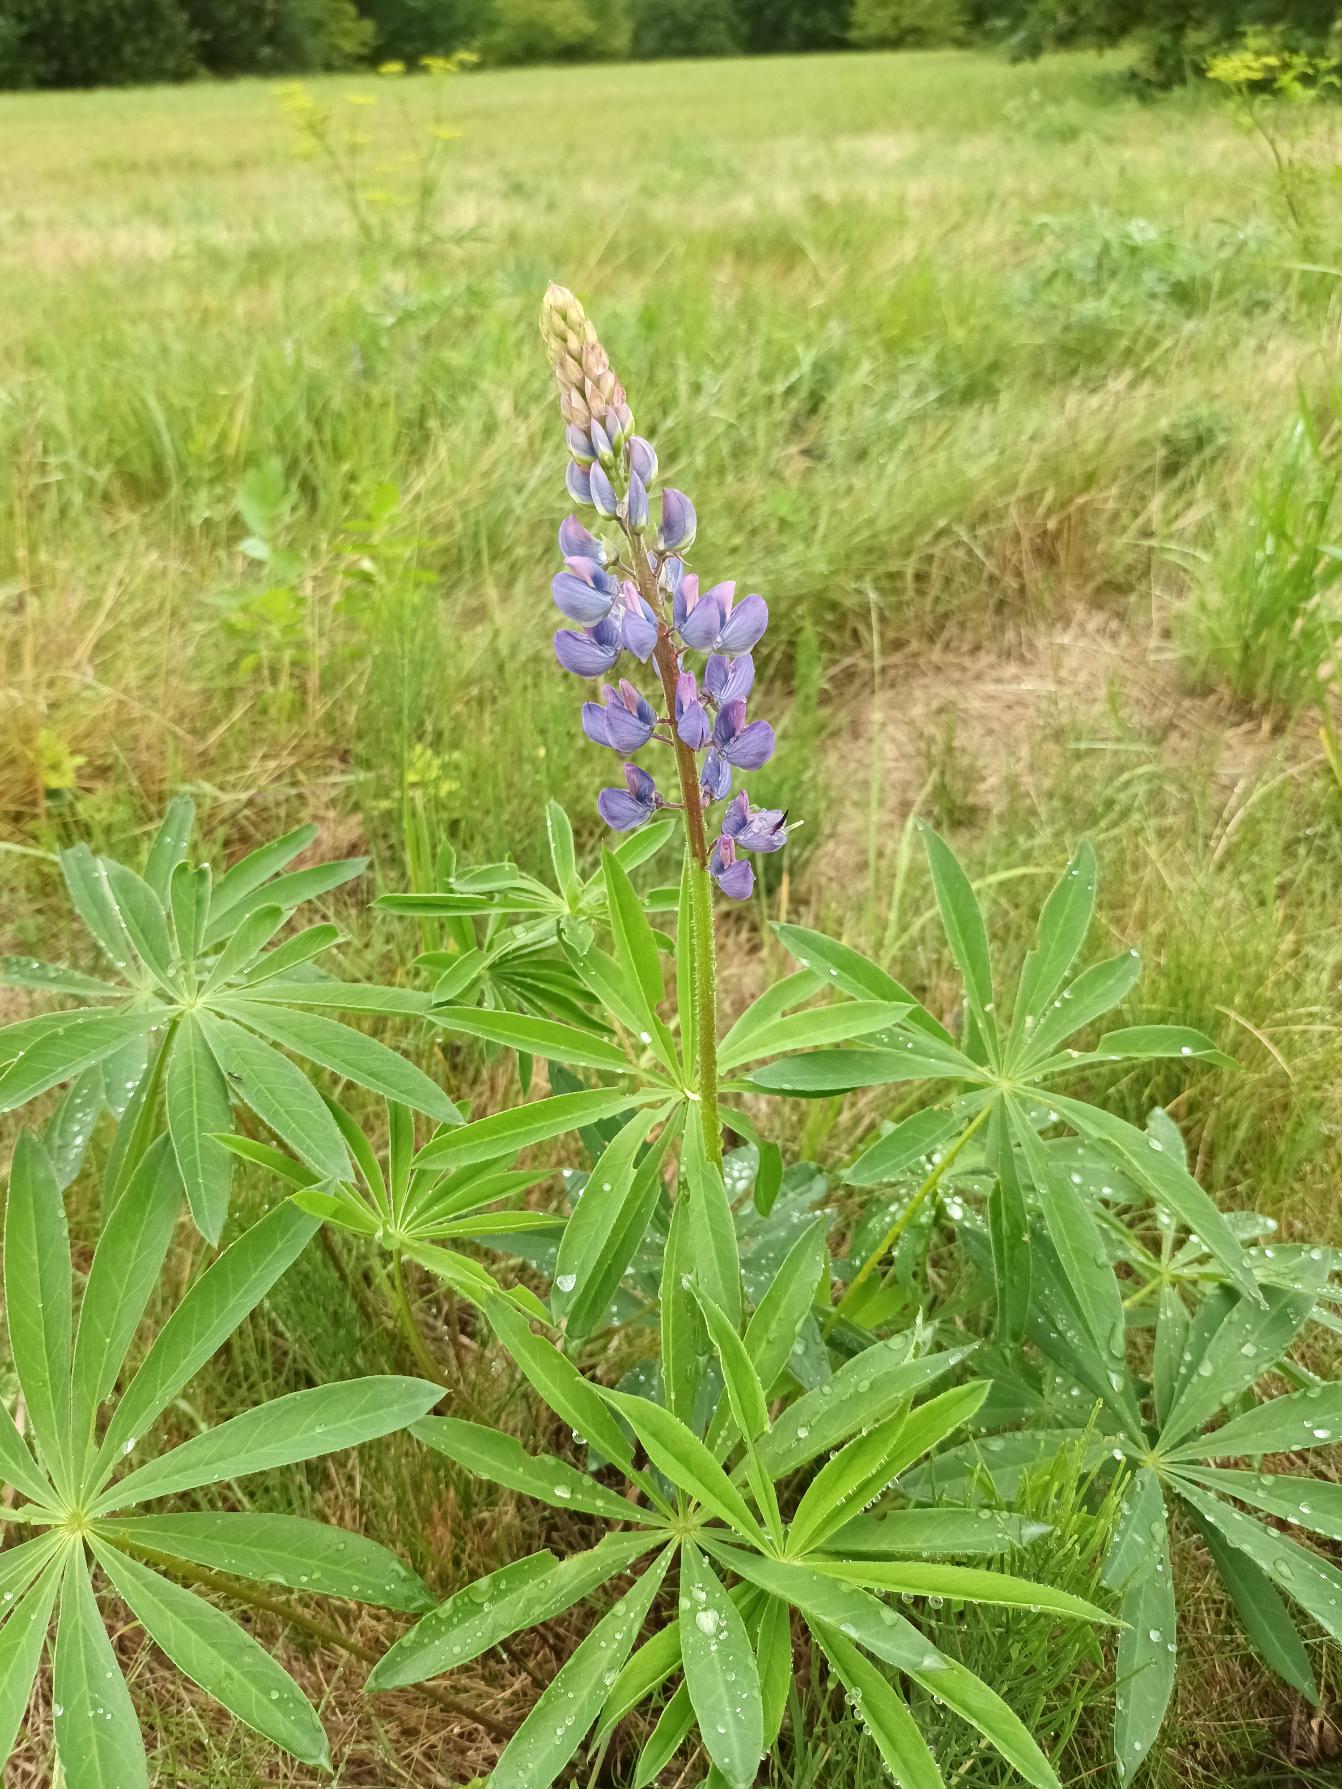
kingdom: Plantae
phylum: Tracheophyta
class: Magnoliopsida
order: Fabales
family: Fabaceae
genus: Lupinus
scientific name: Lupinus polyphyllus
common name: Mangebladet lupin
